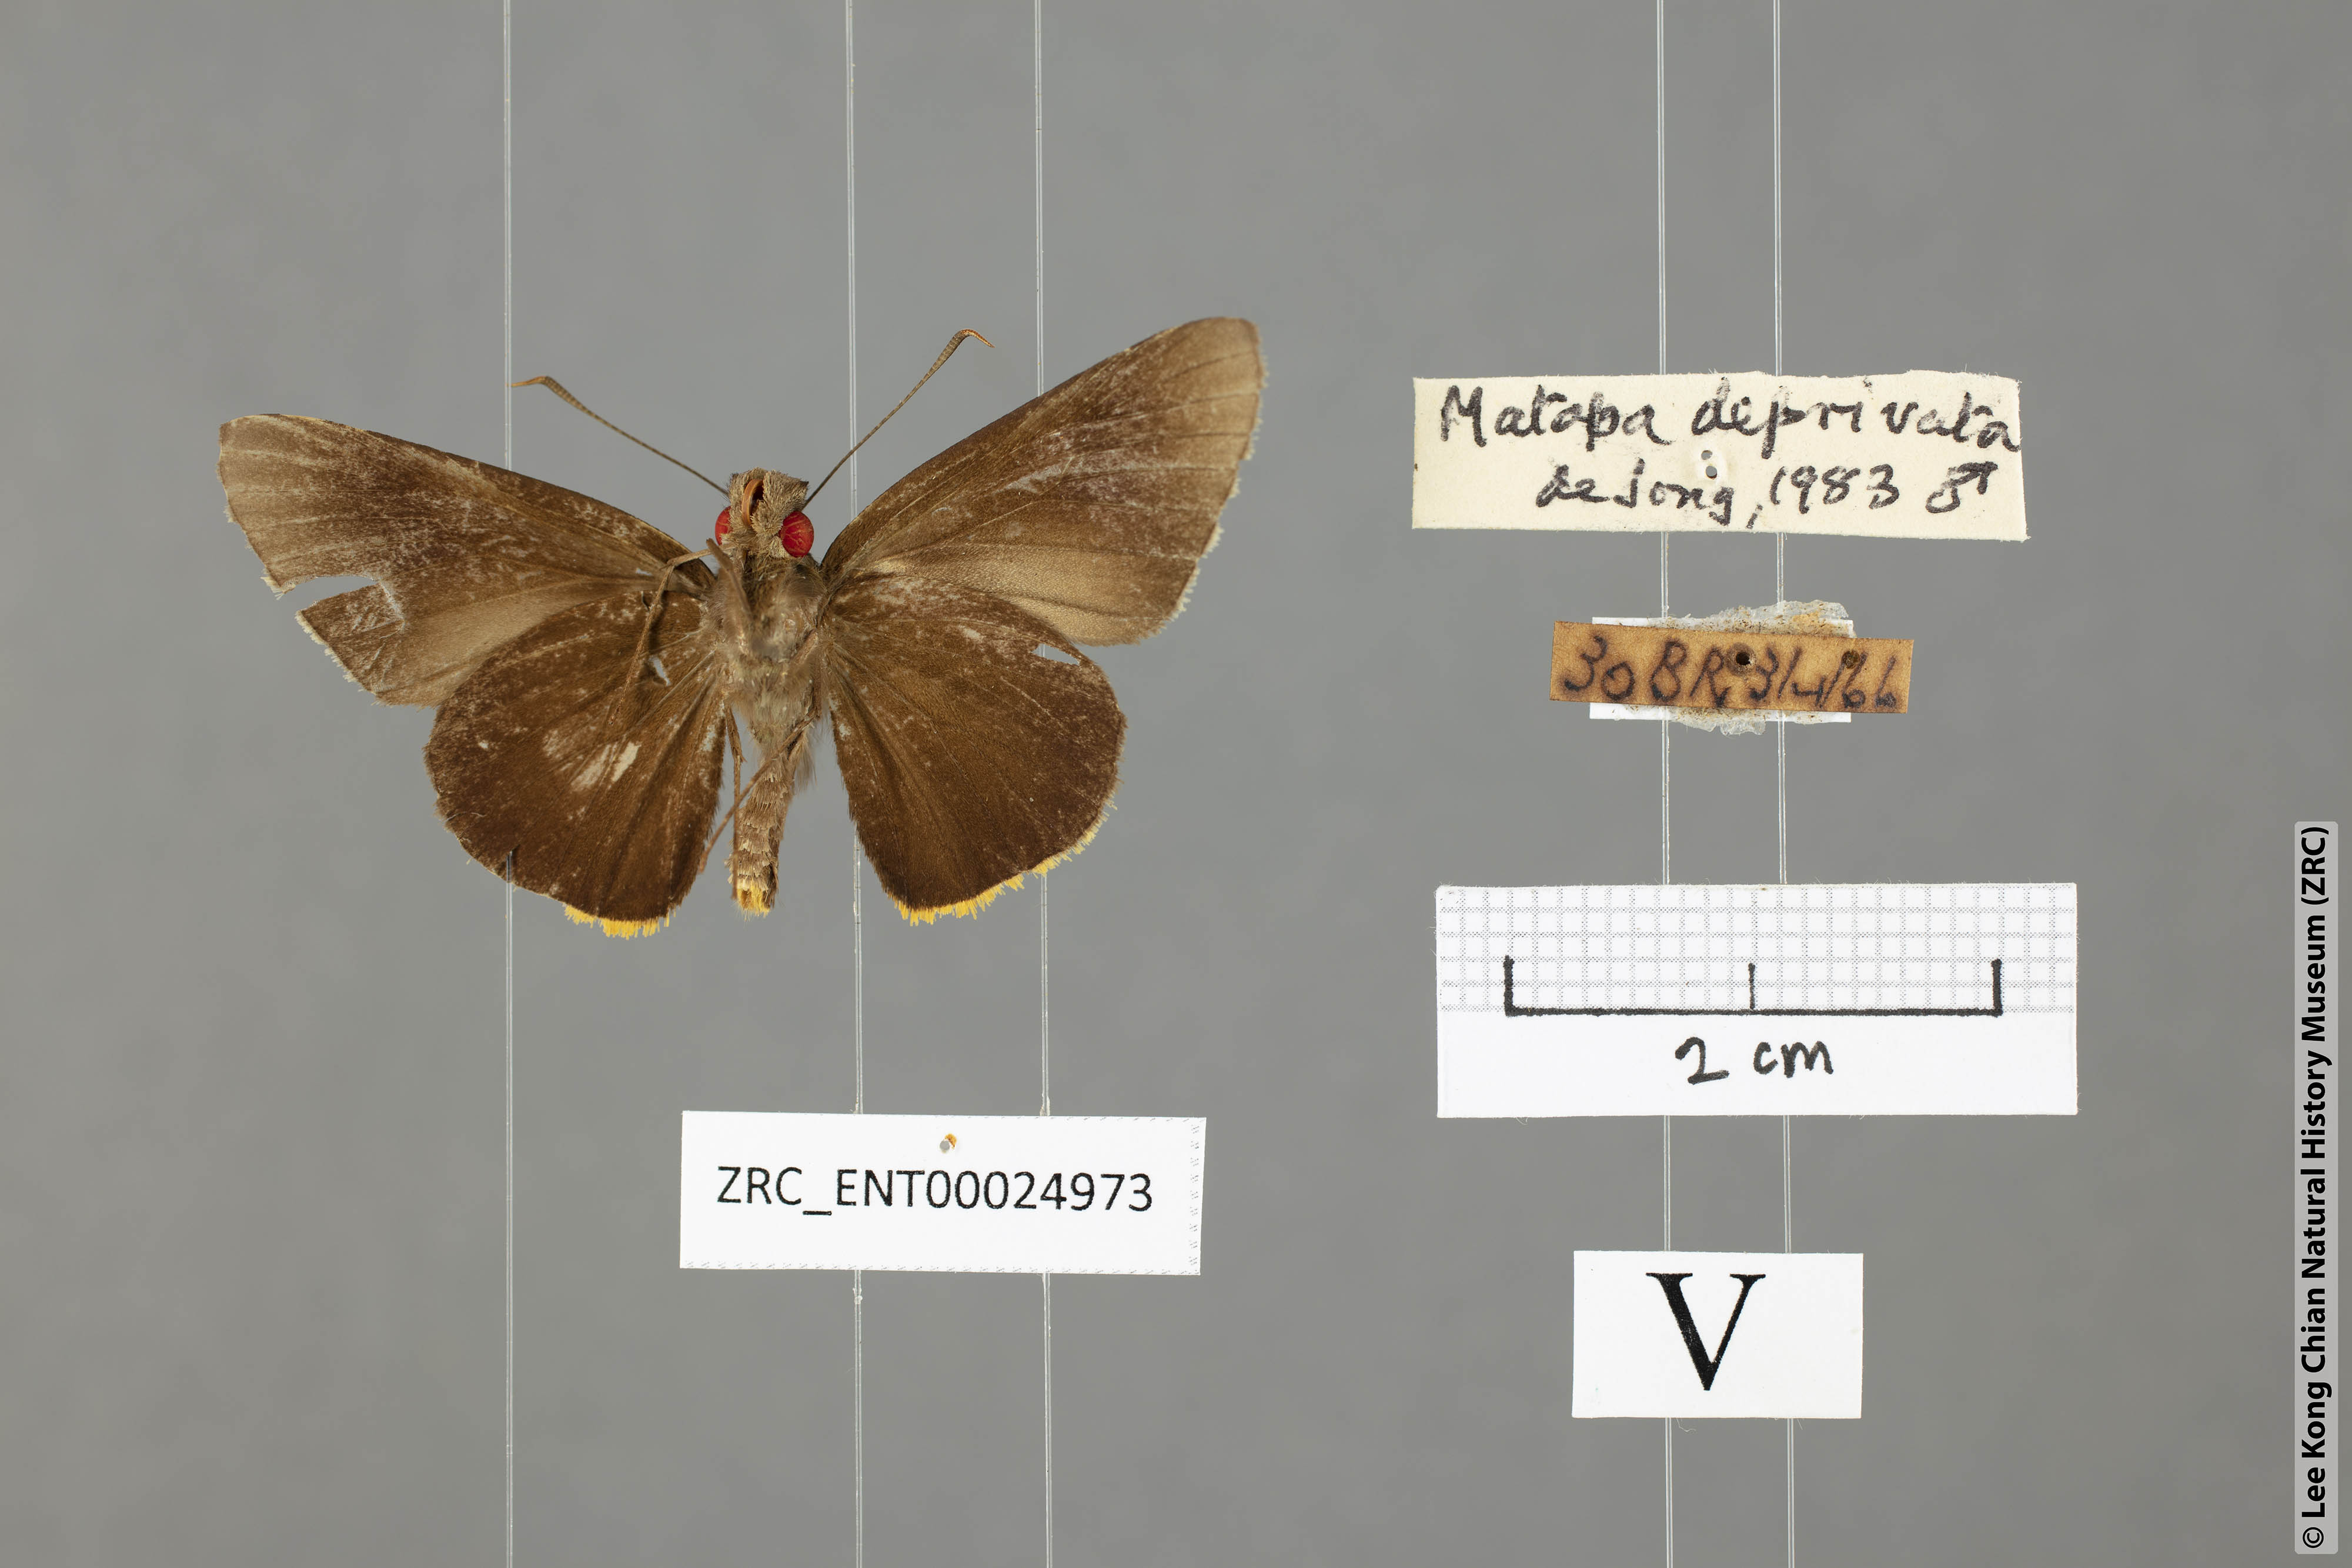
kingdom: Animalia
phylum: Arthropoda
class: Insecta
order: Lepidoptera
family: Hesperiidae
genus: Matapa
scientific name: Matapa
